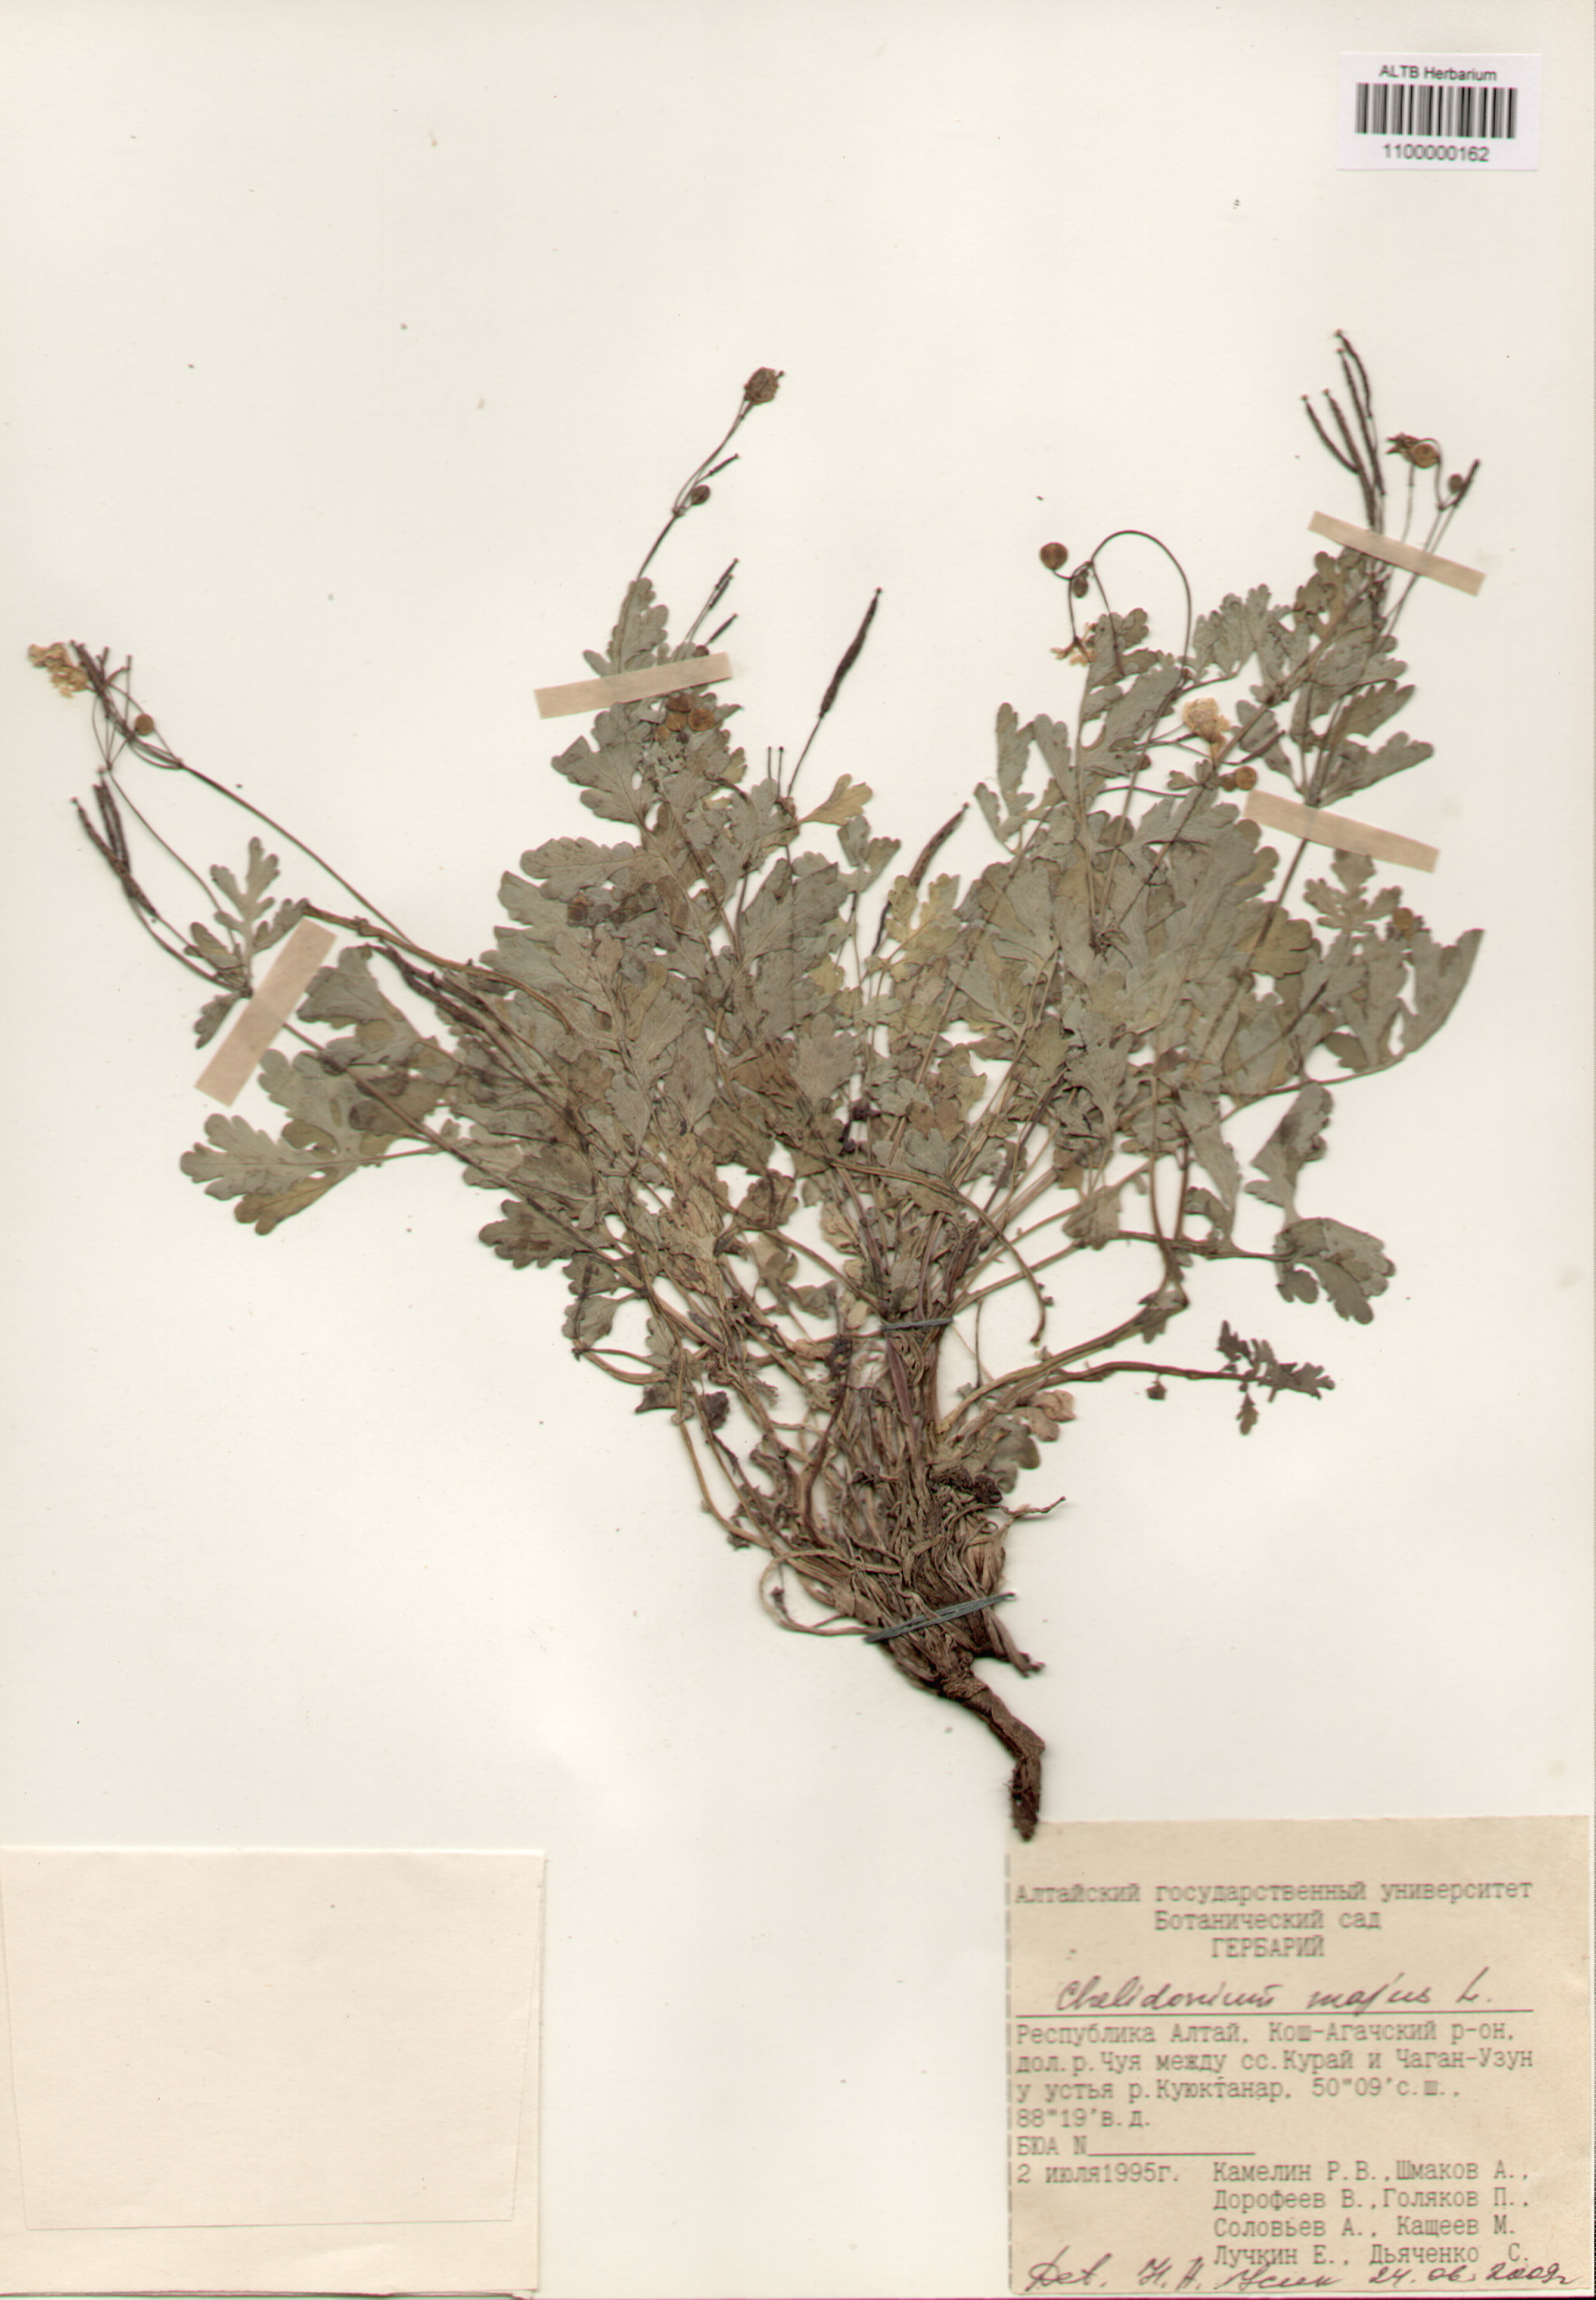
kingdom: Plantae
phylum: Tracheophyta
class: Magnoliopsida
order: Ranunculales
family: Papaveraceae
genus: Chelidonium
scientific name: Chelidonium majus
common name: Greater celandine
